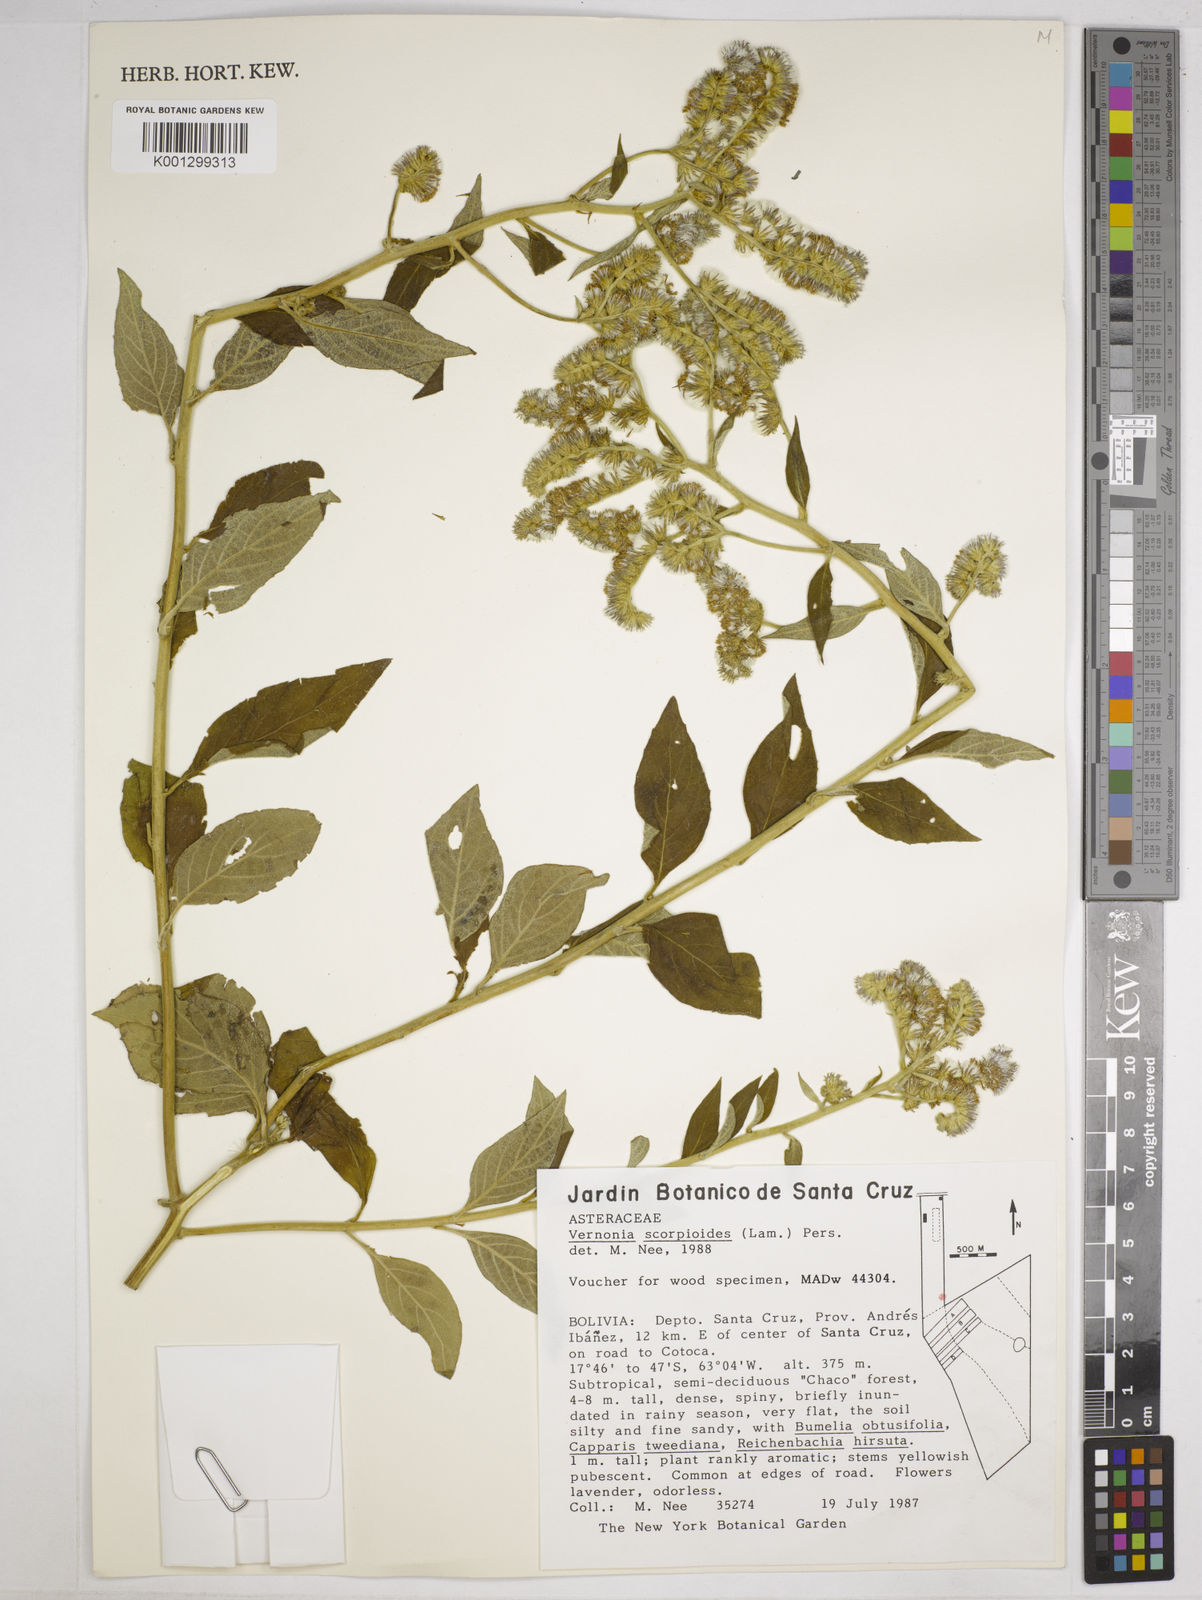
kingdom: Plantae
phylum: Tracheophyta
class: Magnoliopsida
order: Asterales
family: Asteraceae
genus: Cyrtocymura
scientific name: Cyrtocymura scorpioides
